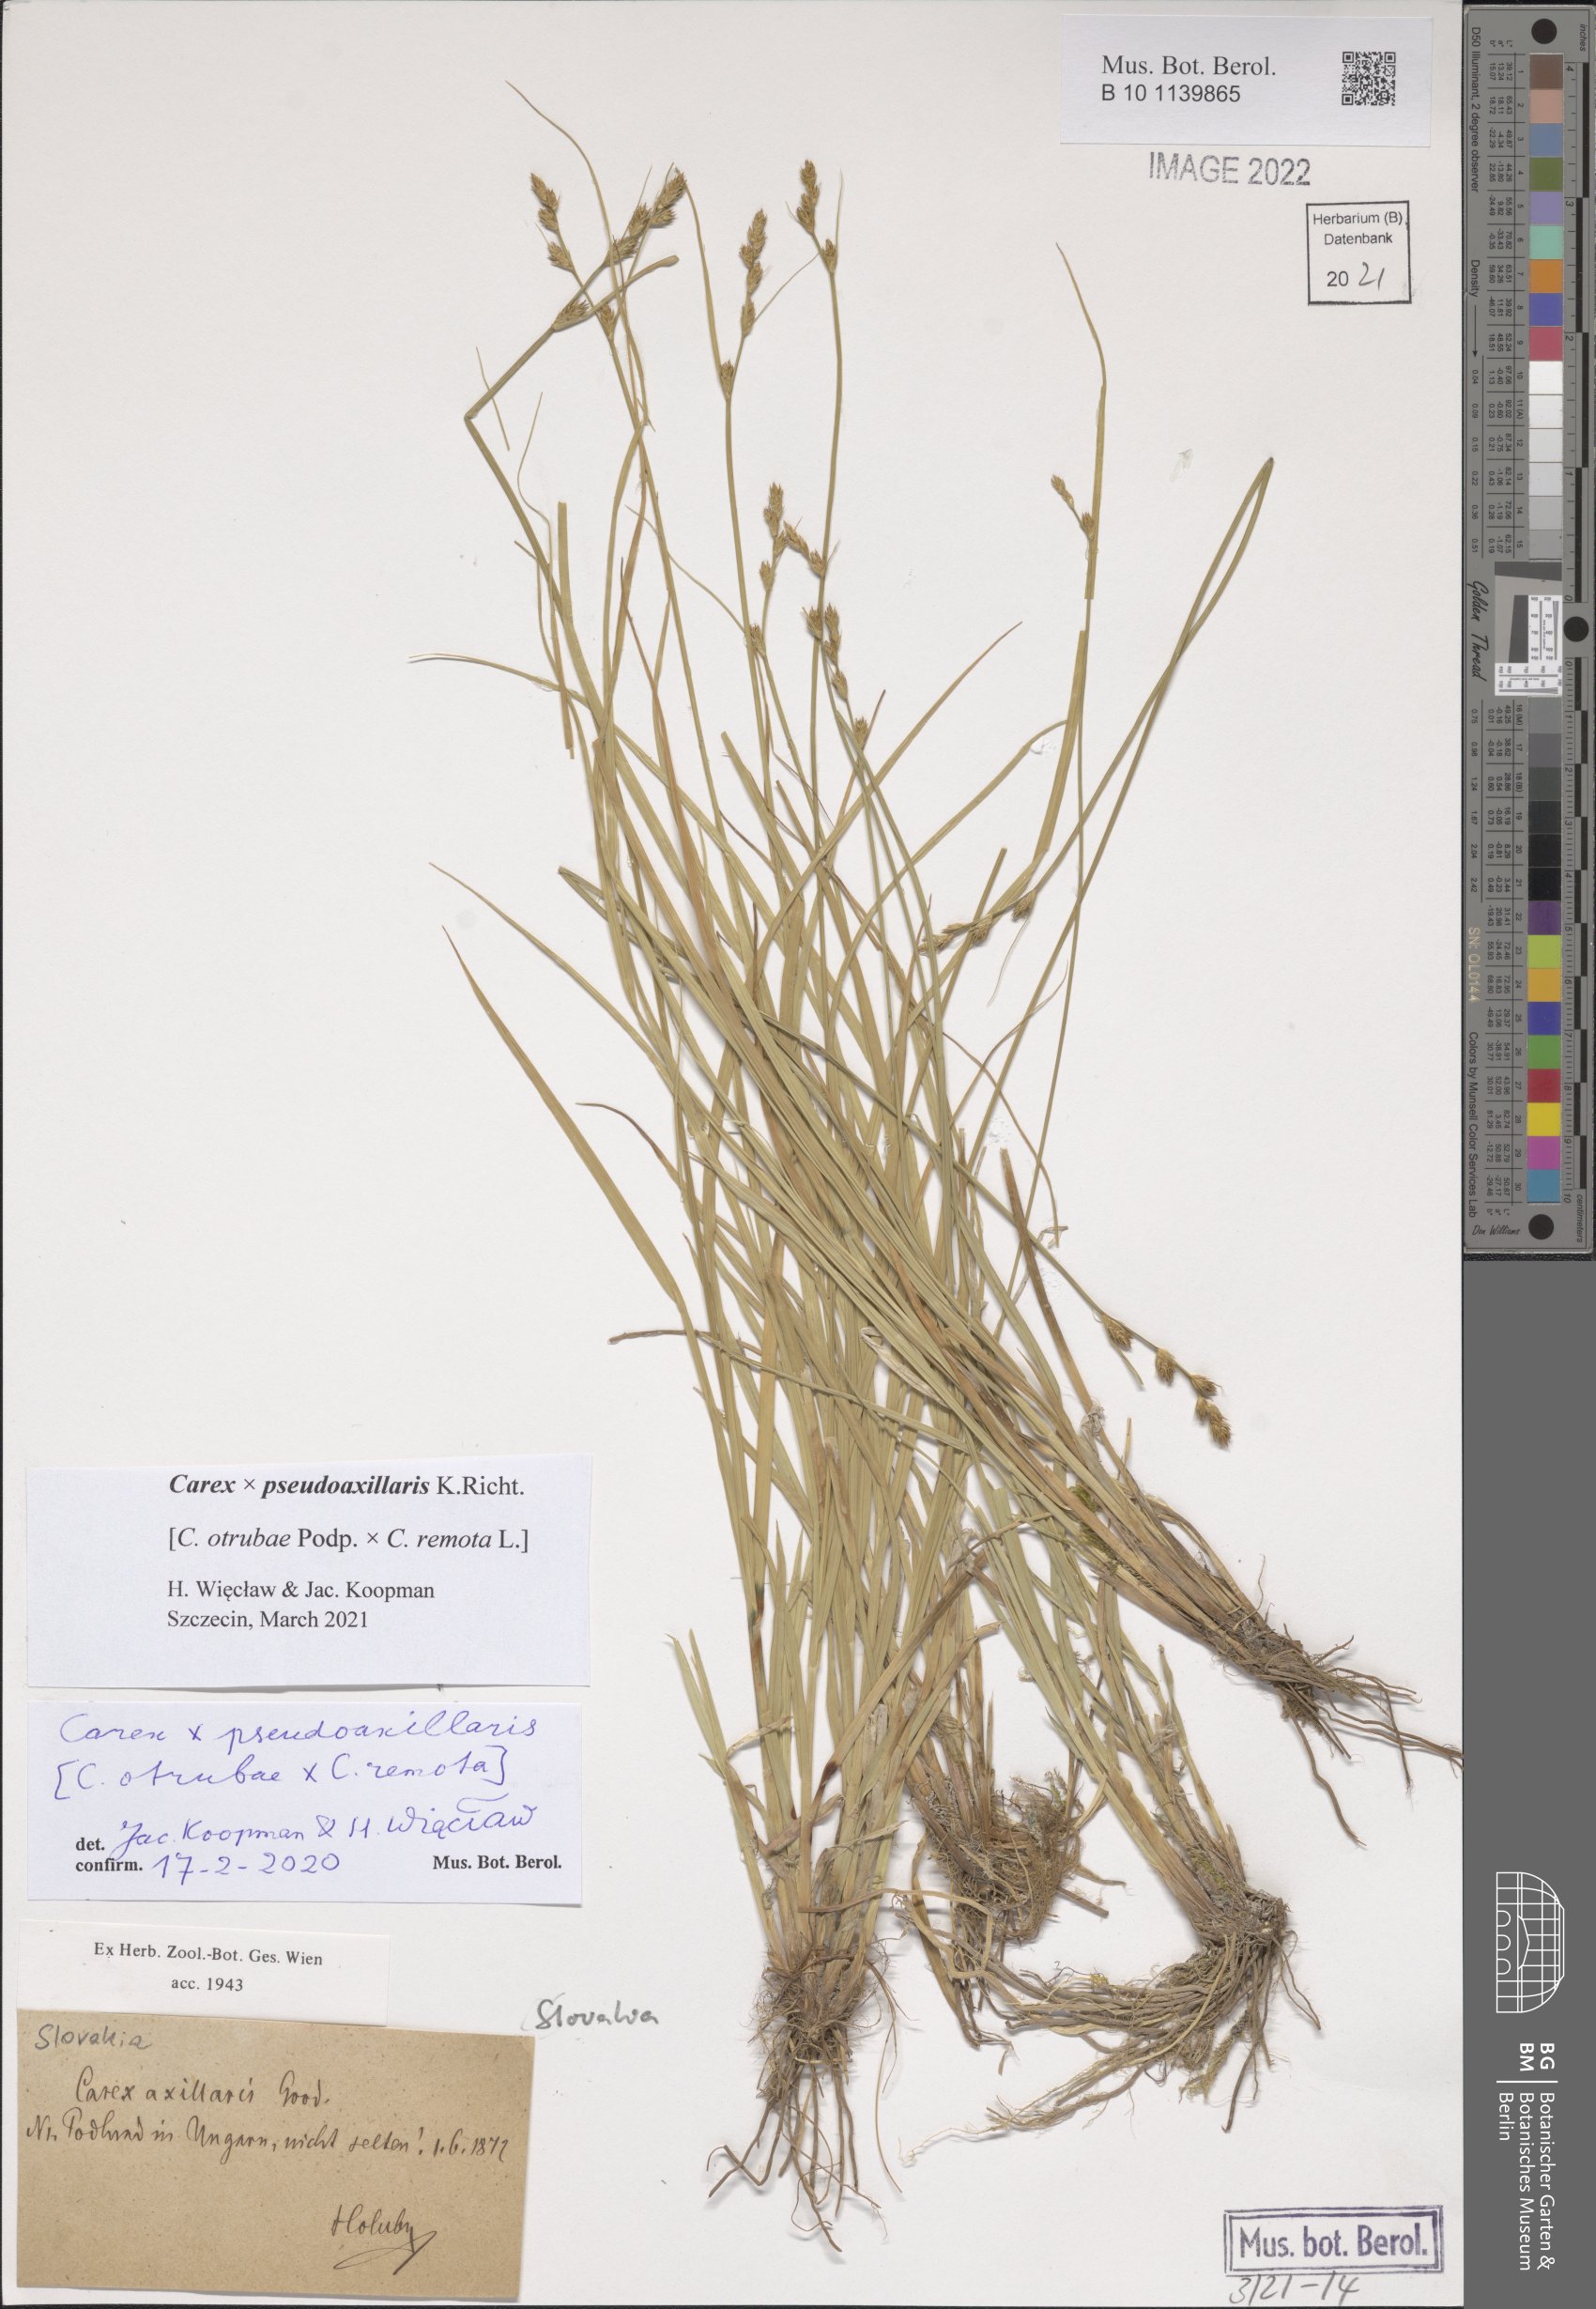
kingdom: Plantae
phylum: Tracheophyta
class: Liliopsida
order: Poales
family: Cyperaceae
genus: Carex
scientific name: Carex pseudoaxillaris
